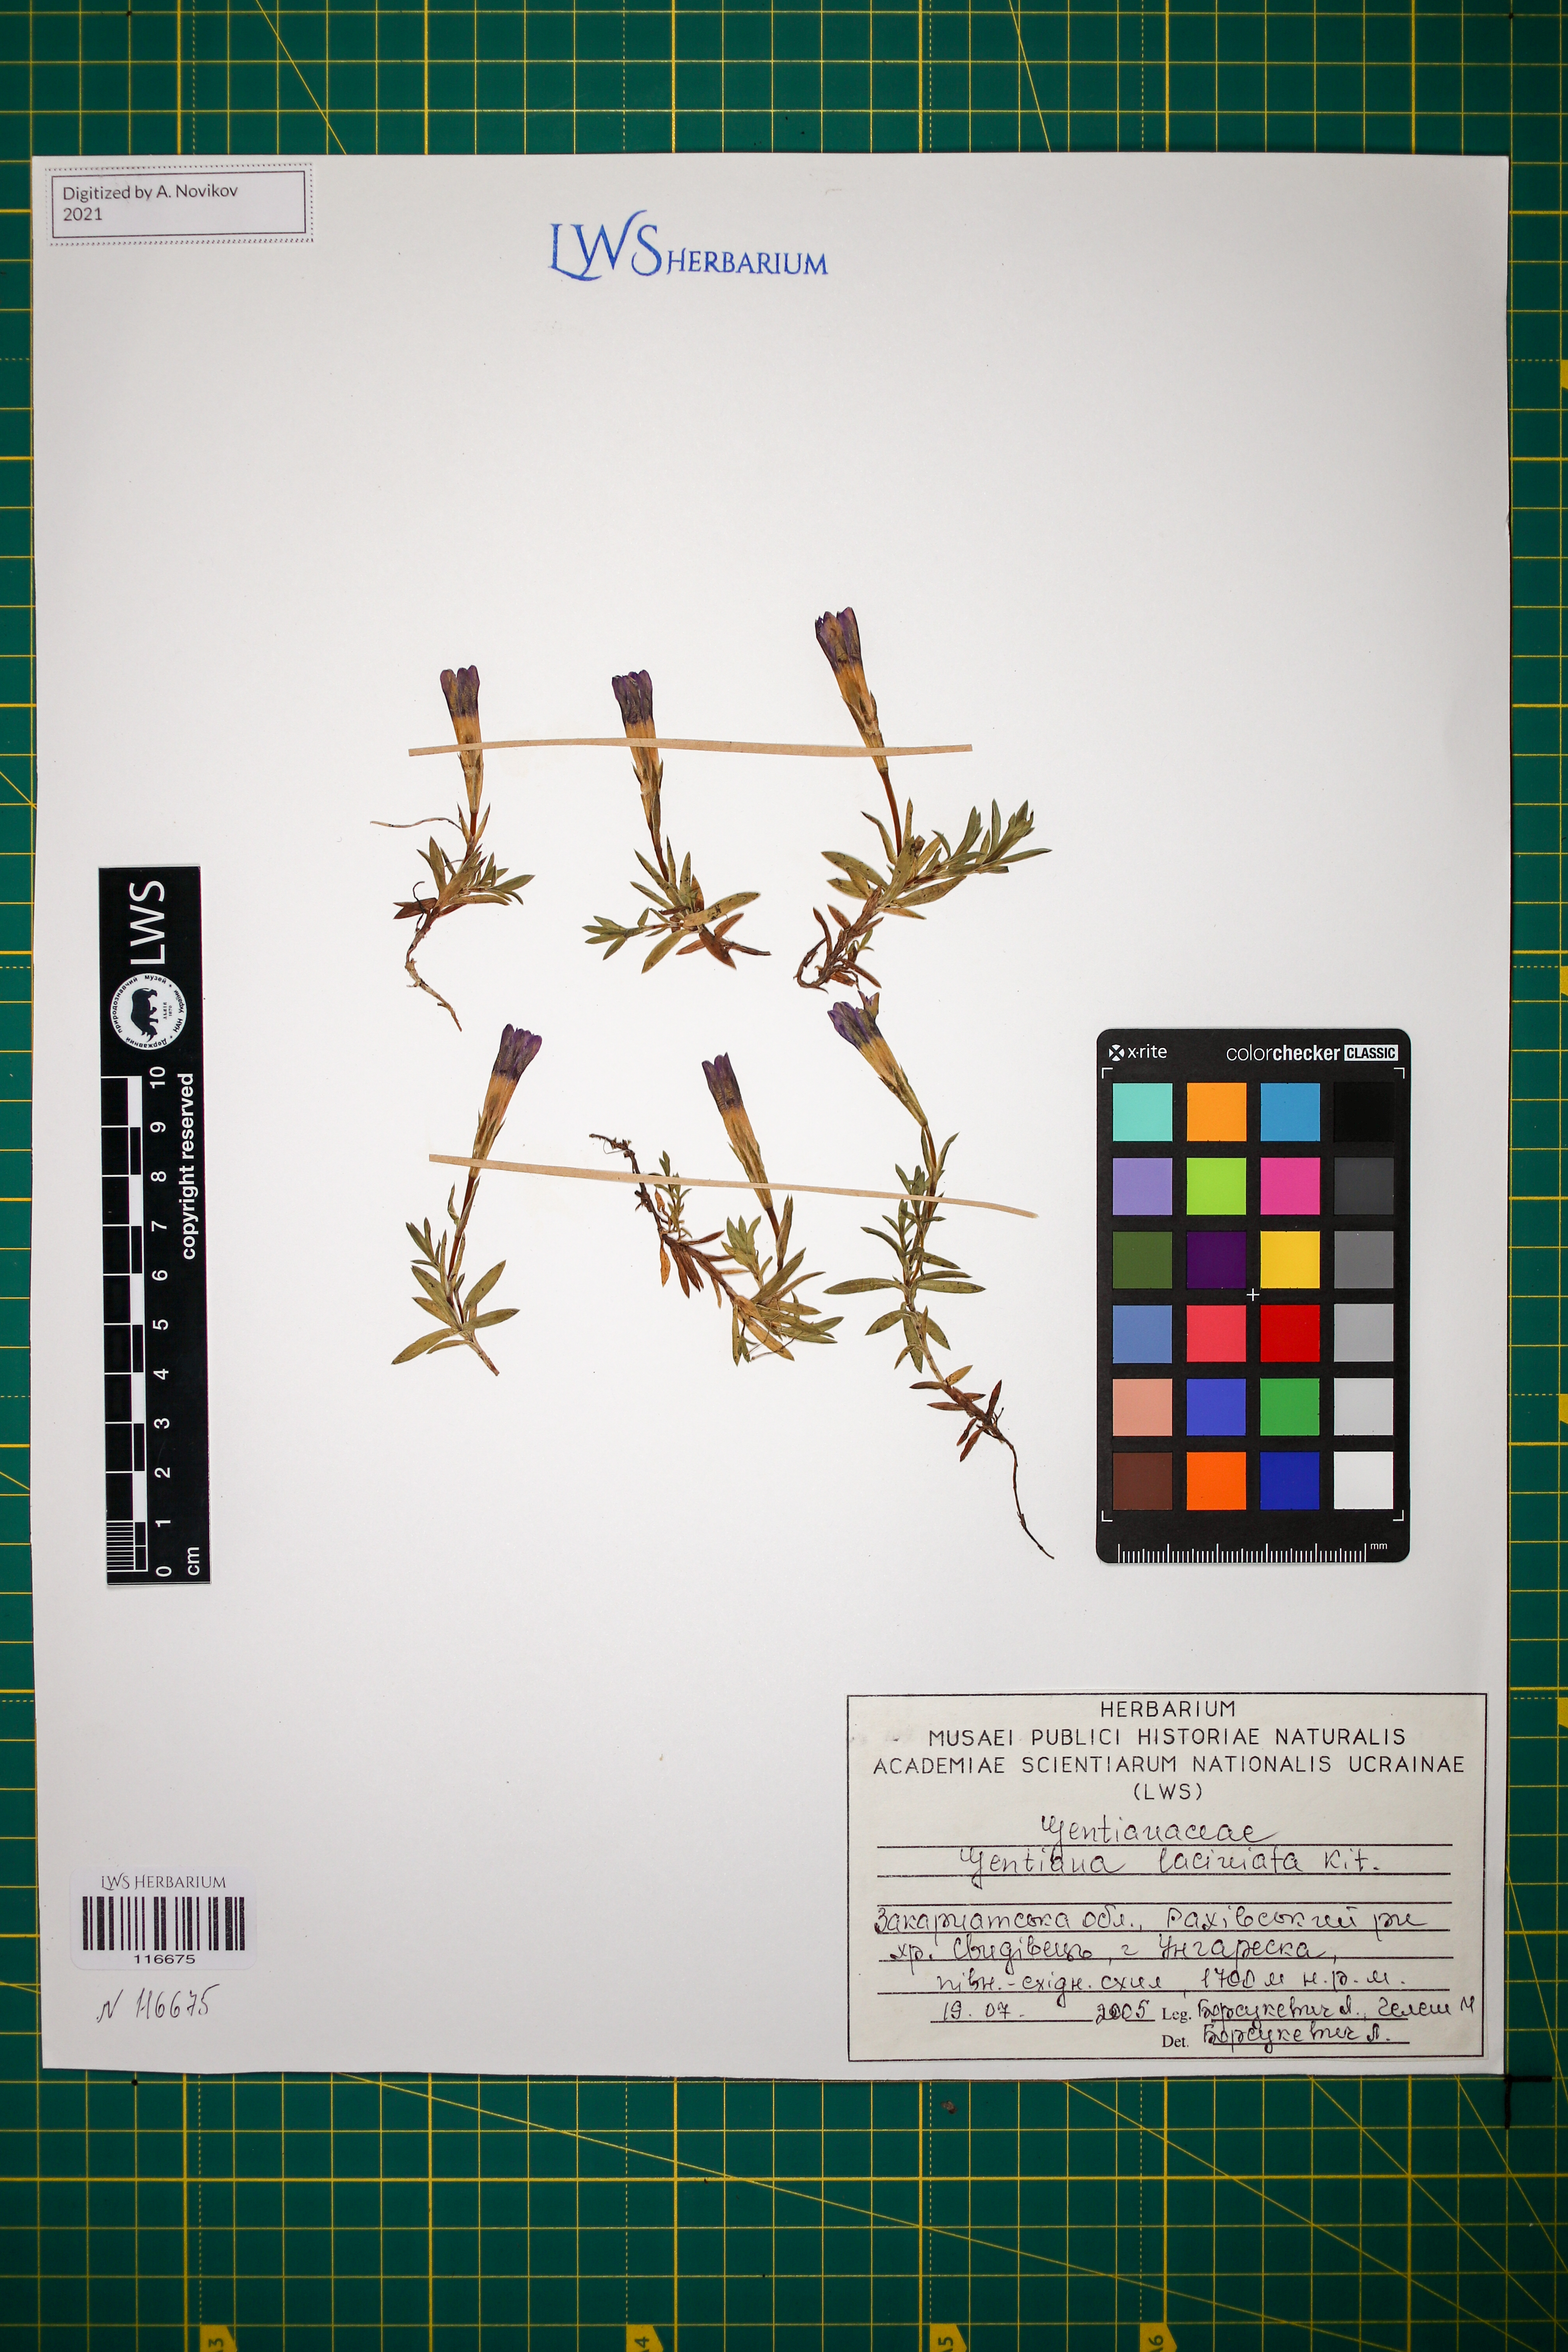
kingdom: Plantae
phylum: Tracheophyta
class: Magnoliopsida
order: Gentianales
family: Gentianaceae
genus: Gentiana
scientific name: Gentiana laciniata
